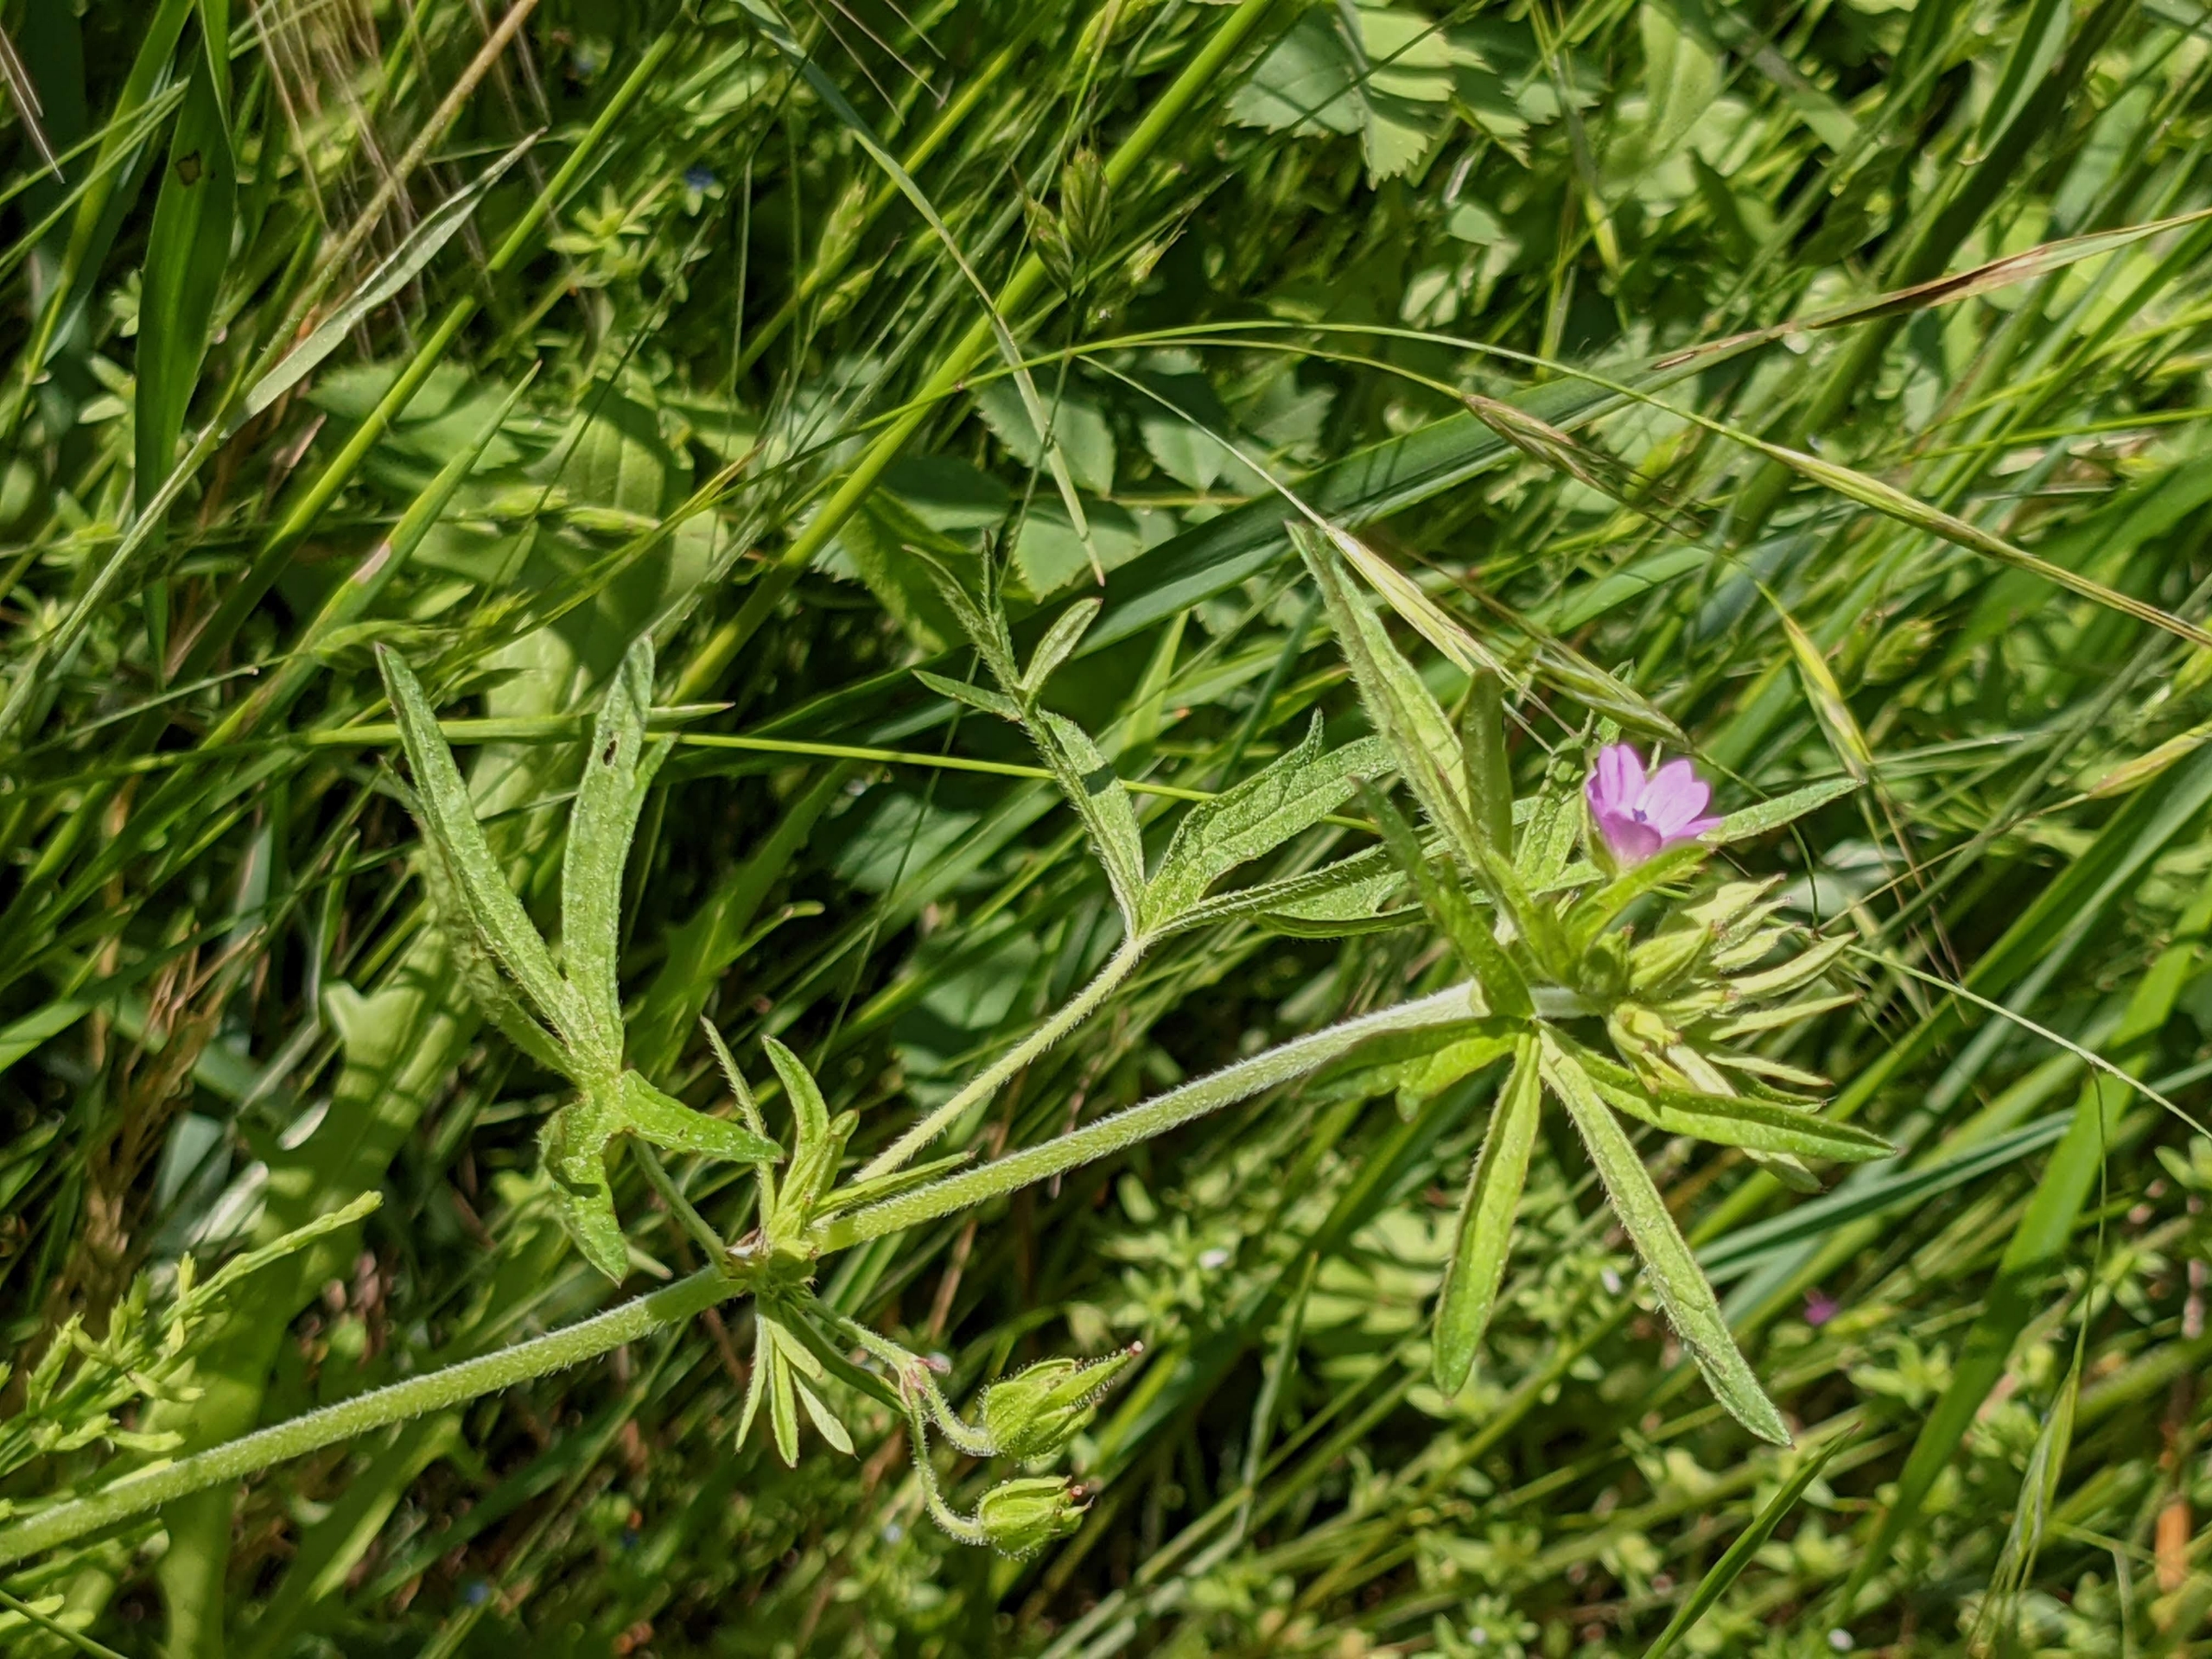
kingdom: Plantae
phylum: Tracheophyta
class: Magnoliopsida
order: Geraniales
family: Geraniaceae
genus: Geranium
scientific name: Geranium dissectum
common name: Kløftet storkenæb
